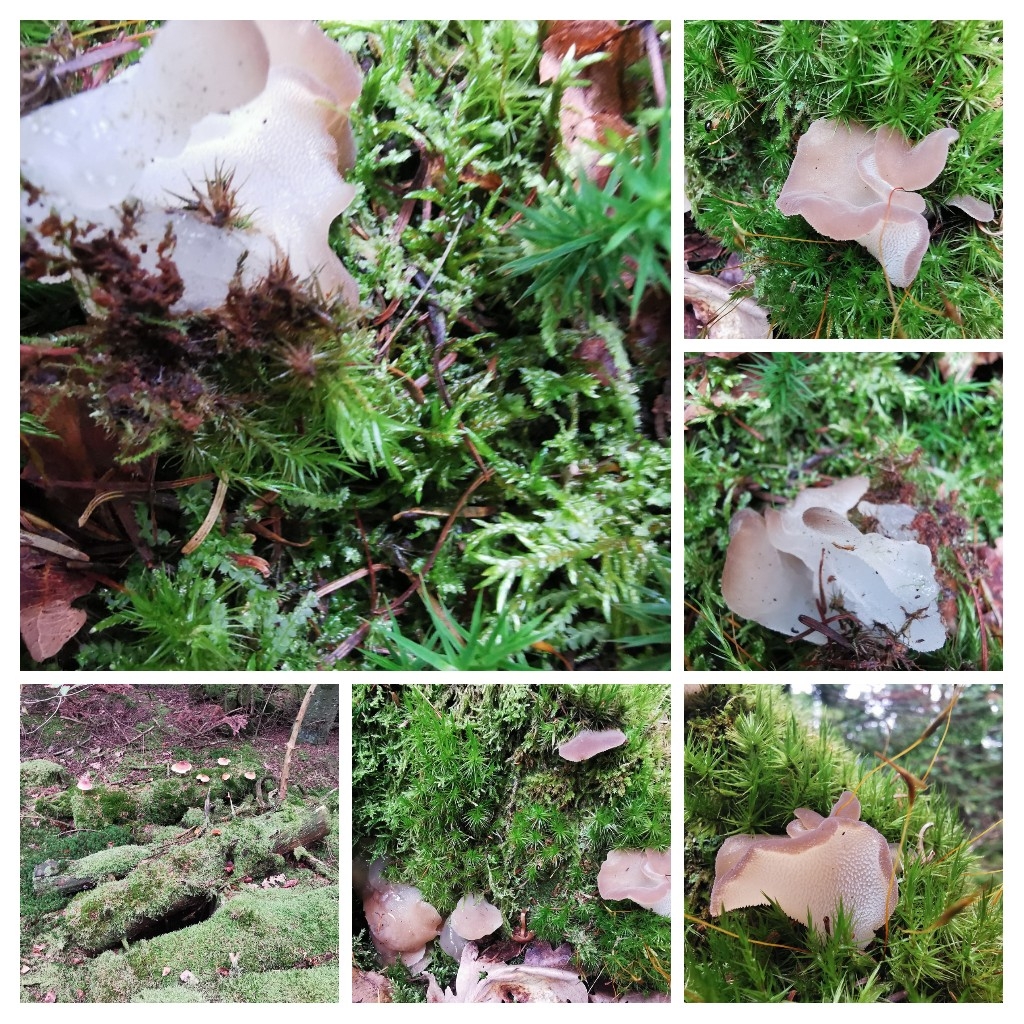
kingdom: Fungi
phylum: Basidiomycota
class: Agaricomycetes
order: Auriculariales
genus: Pseudohydnum
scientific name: Pseudohydnum gelatinosum
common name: bævretand
